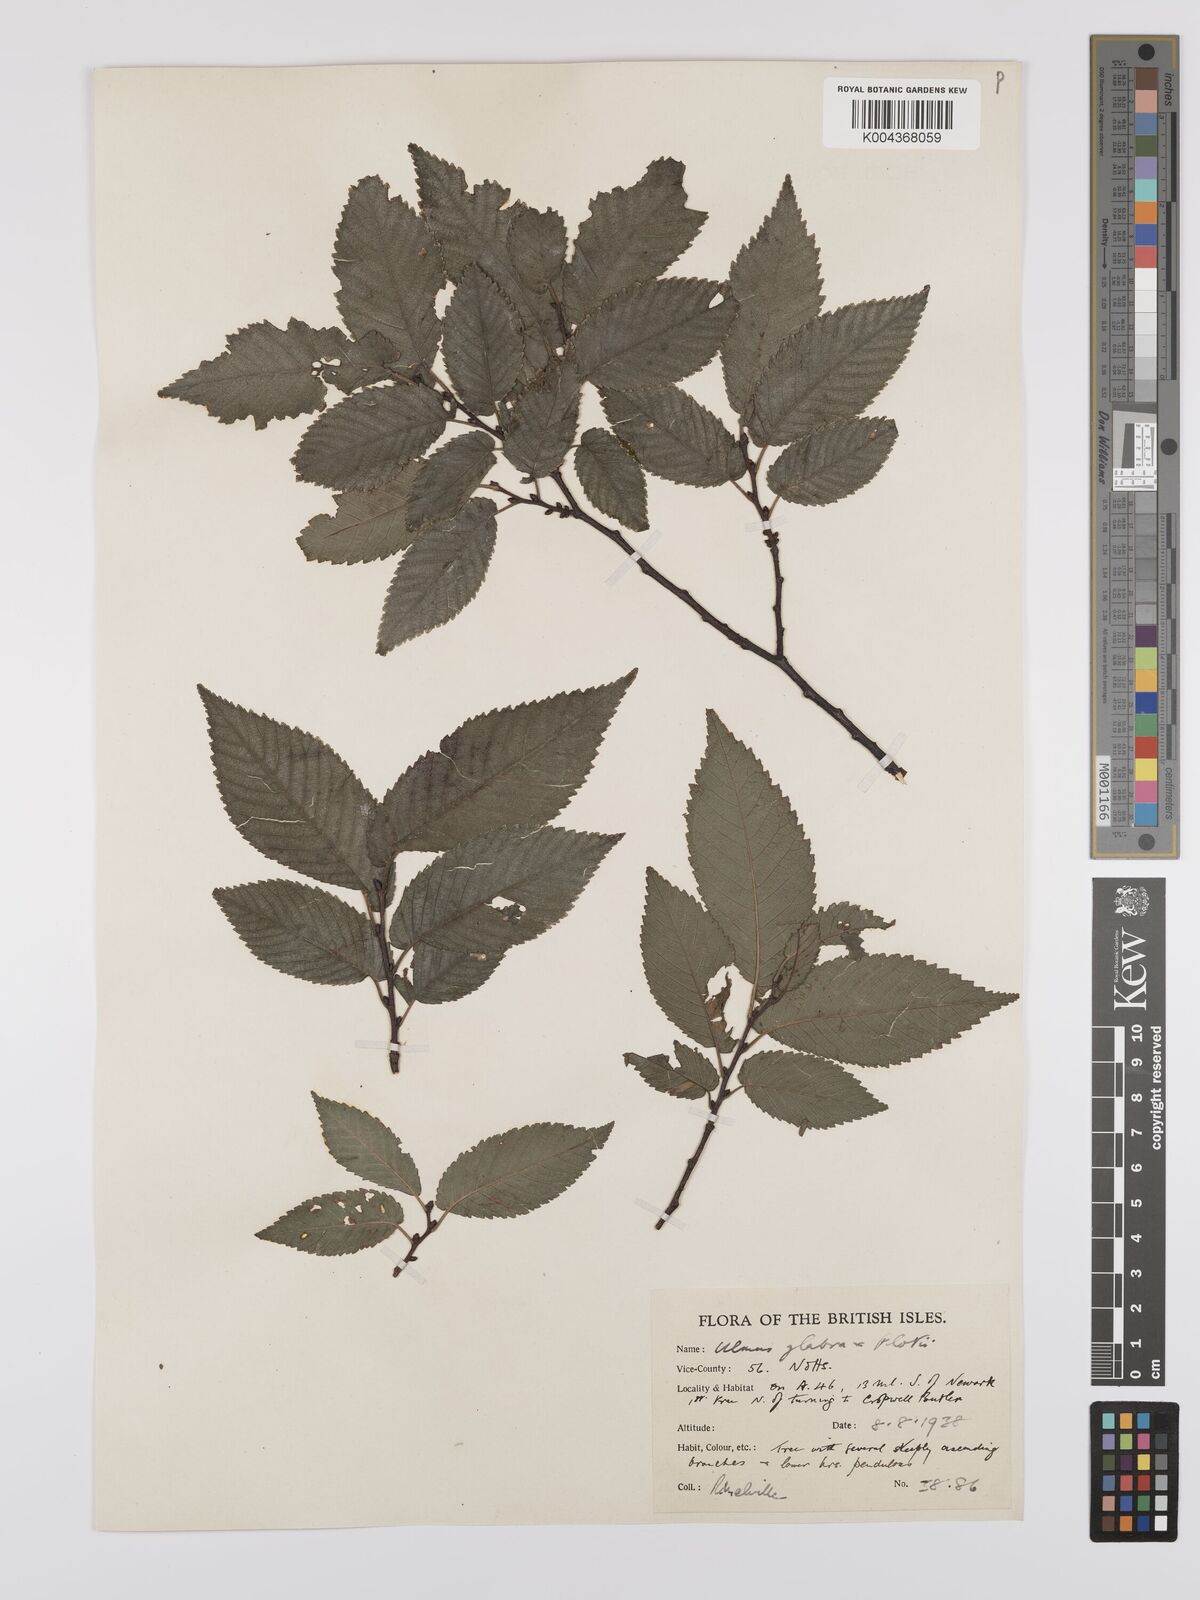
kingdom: Plantae
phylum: Tracheophyta
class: Magnoliopsida
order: Rosales
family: Ulmaceae
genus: Ulmus
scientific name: Ulmus
